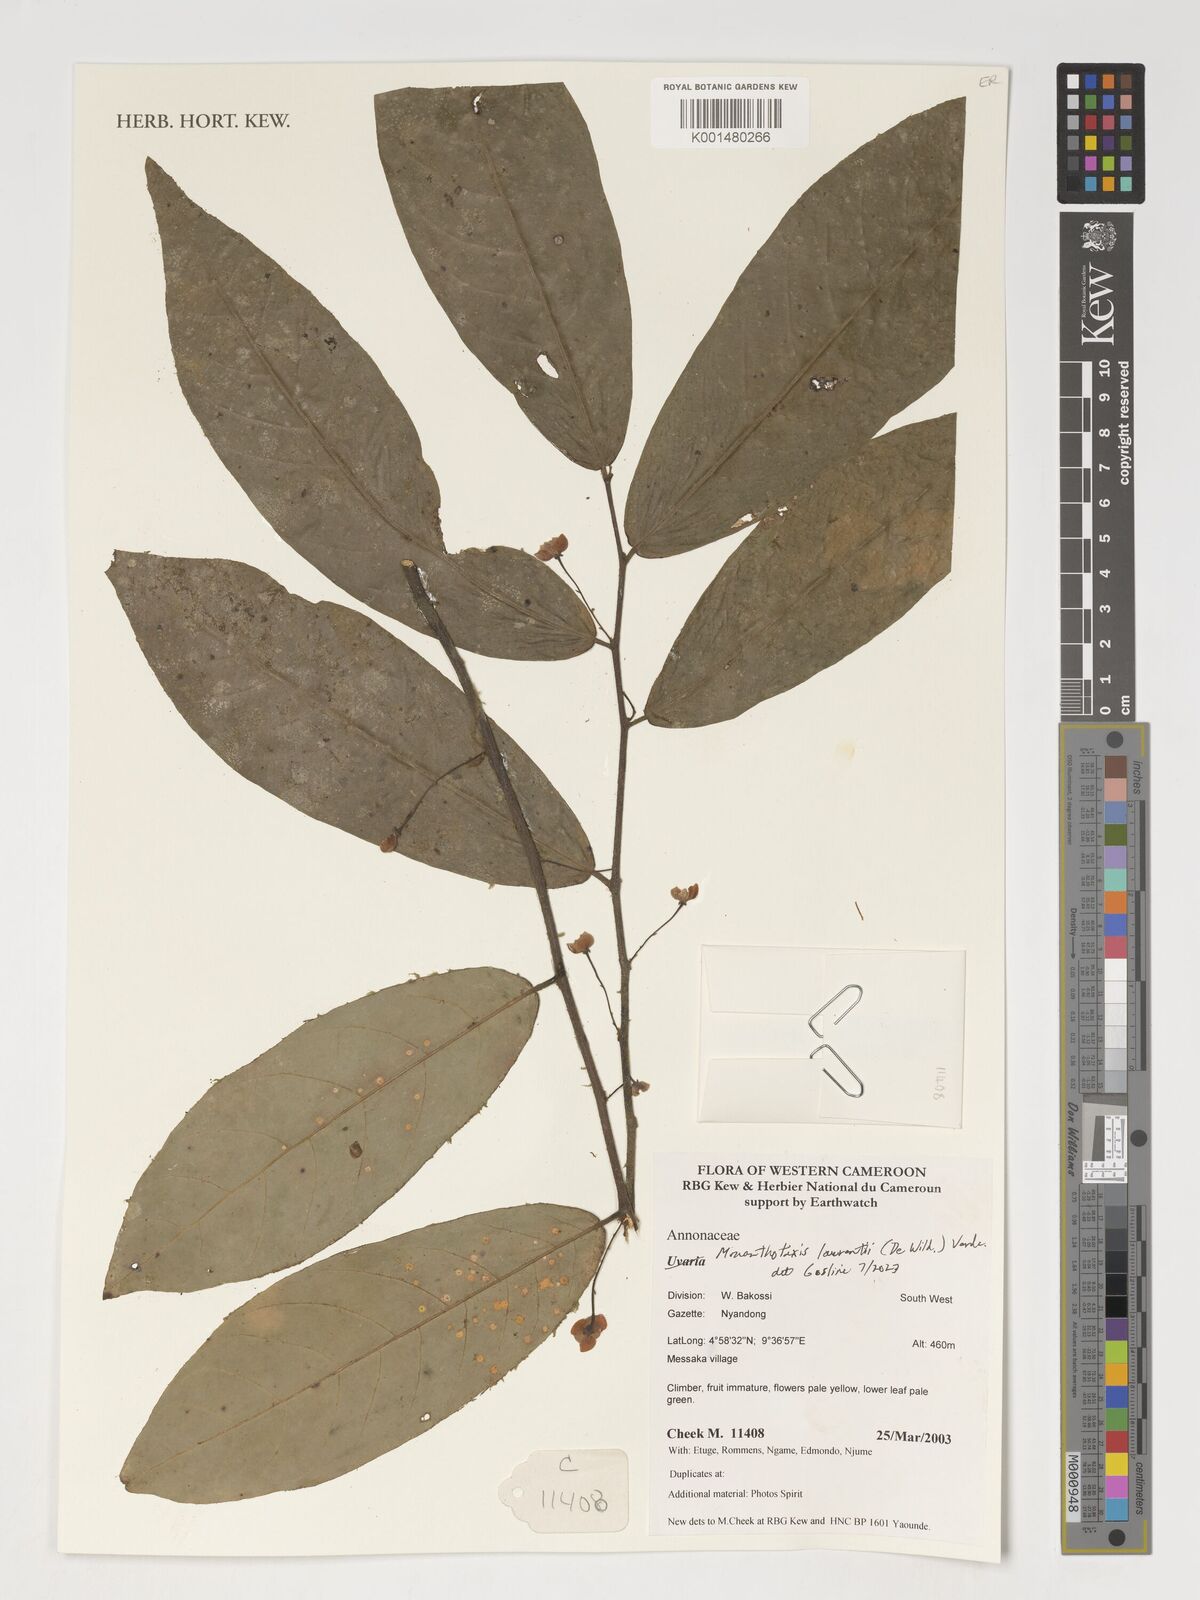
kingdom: Plantae
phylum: Tracheophyta
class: Magnoliopsida
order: Magnoliales
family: Annonaceae
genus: Monanthotaxis
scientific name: Monanthotaxis laurentii
